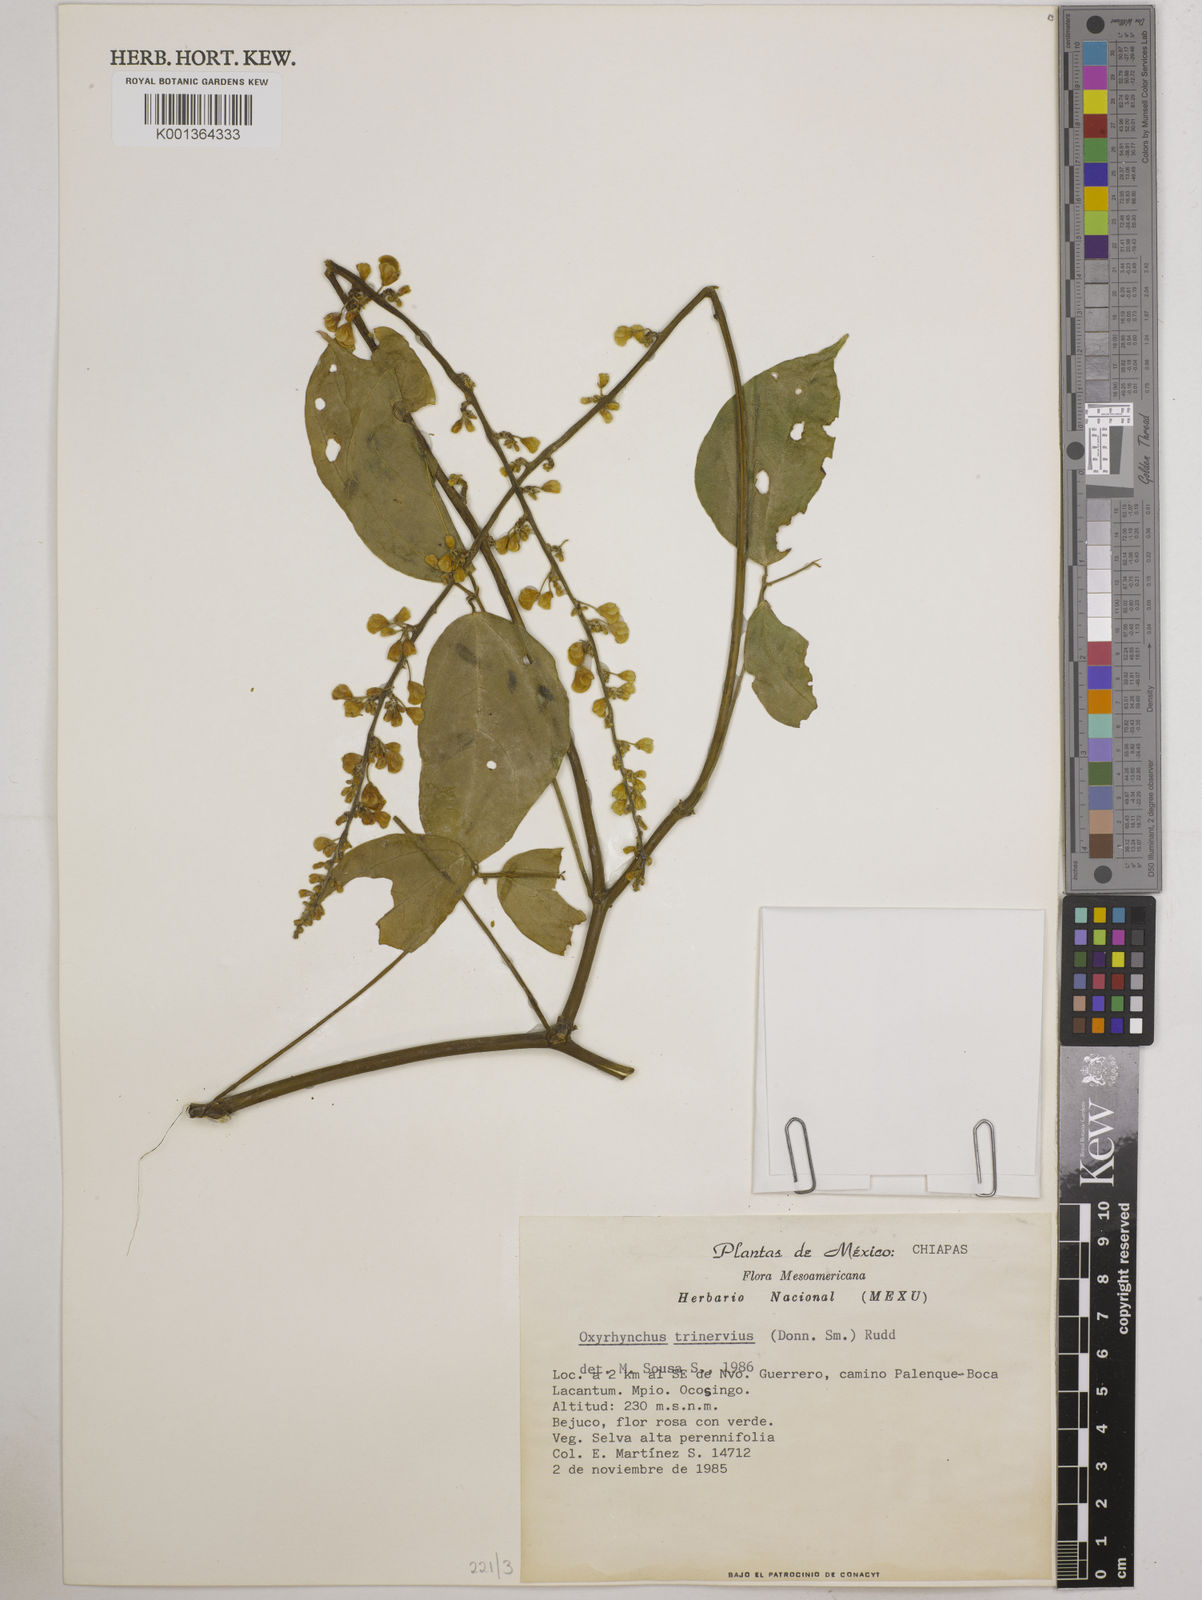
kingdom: Plantae
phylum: Tracheophyta
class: Magnoliopsida
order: Fabales
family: Fabaceae
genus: Oxyrhynchus
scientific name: Oxyrhynchus trinervius
